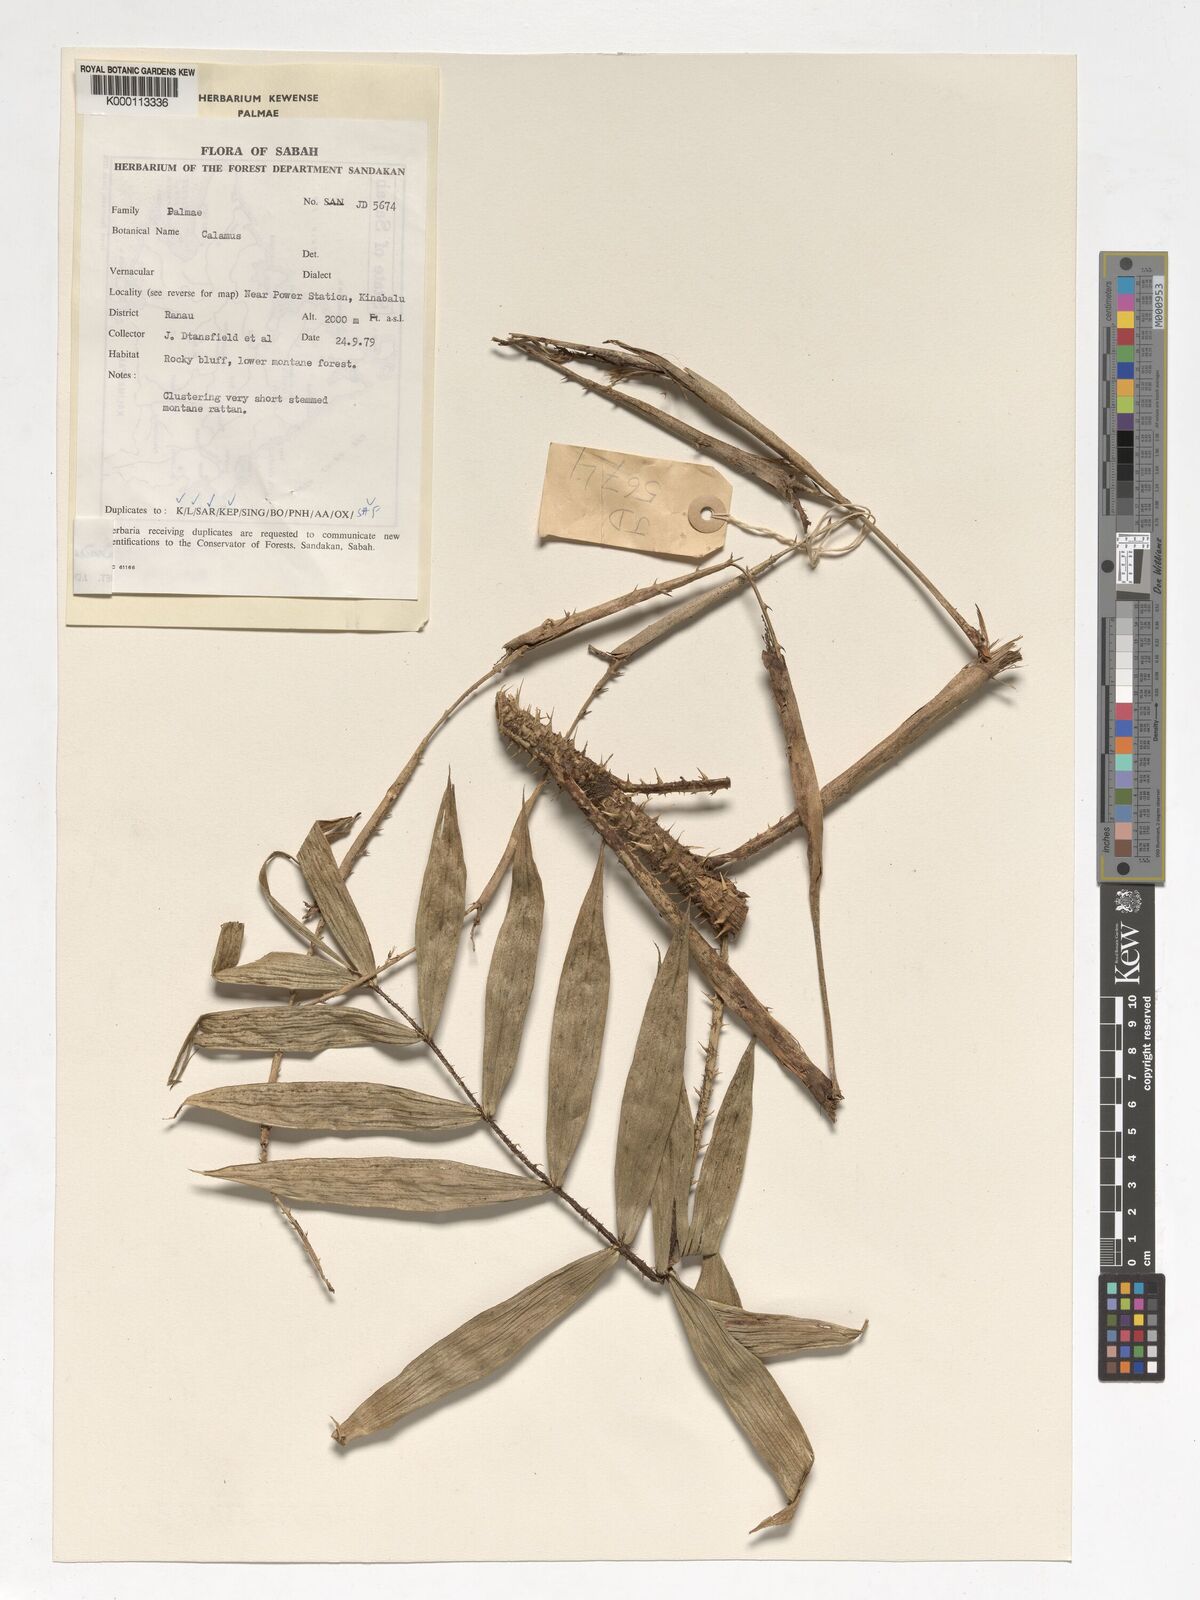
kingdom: Plantae
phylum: Tracheophyta
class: Liliopsida
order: Arecales
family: Arecaceae
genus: Calamus
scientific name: Calamus gibbsianus
